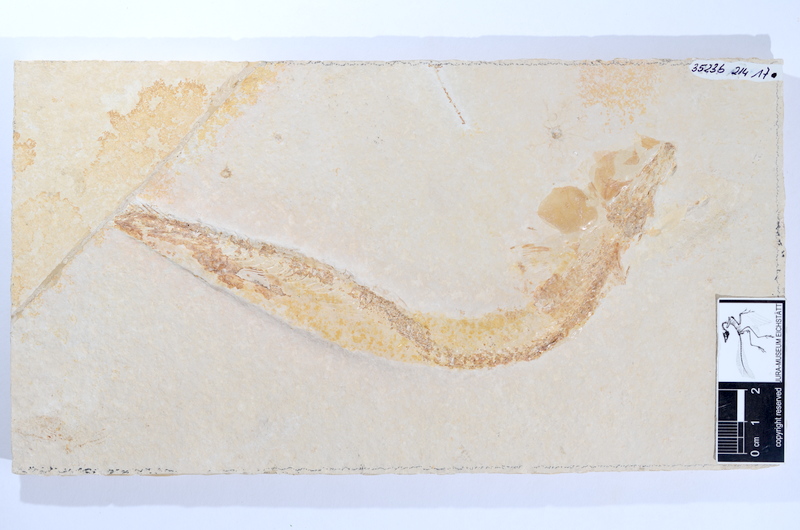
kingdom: Animalia
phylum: Chordata
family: Allothrissopidae
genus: Allothrissops
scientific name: Allothrissops
